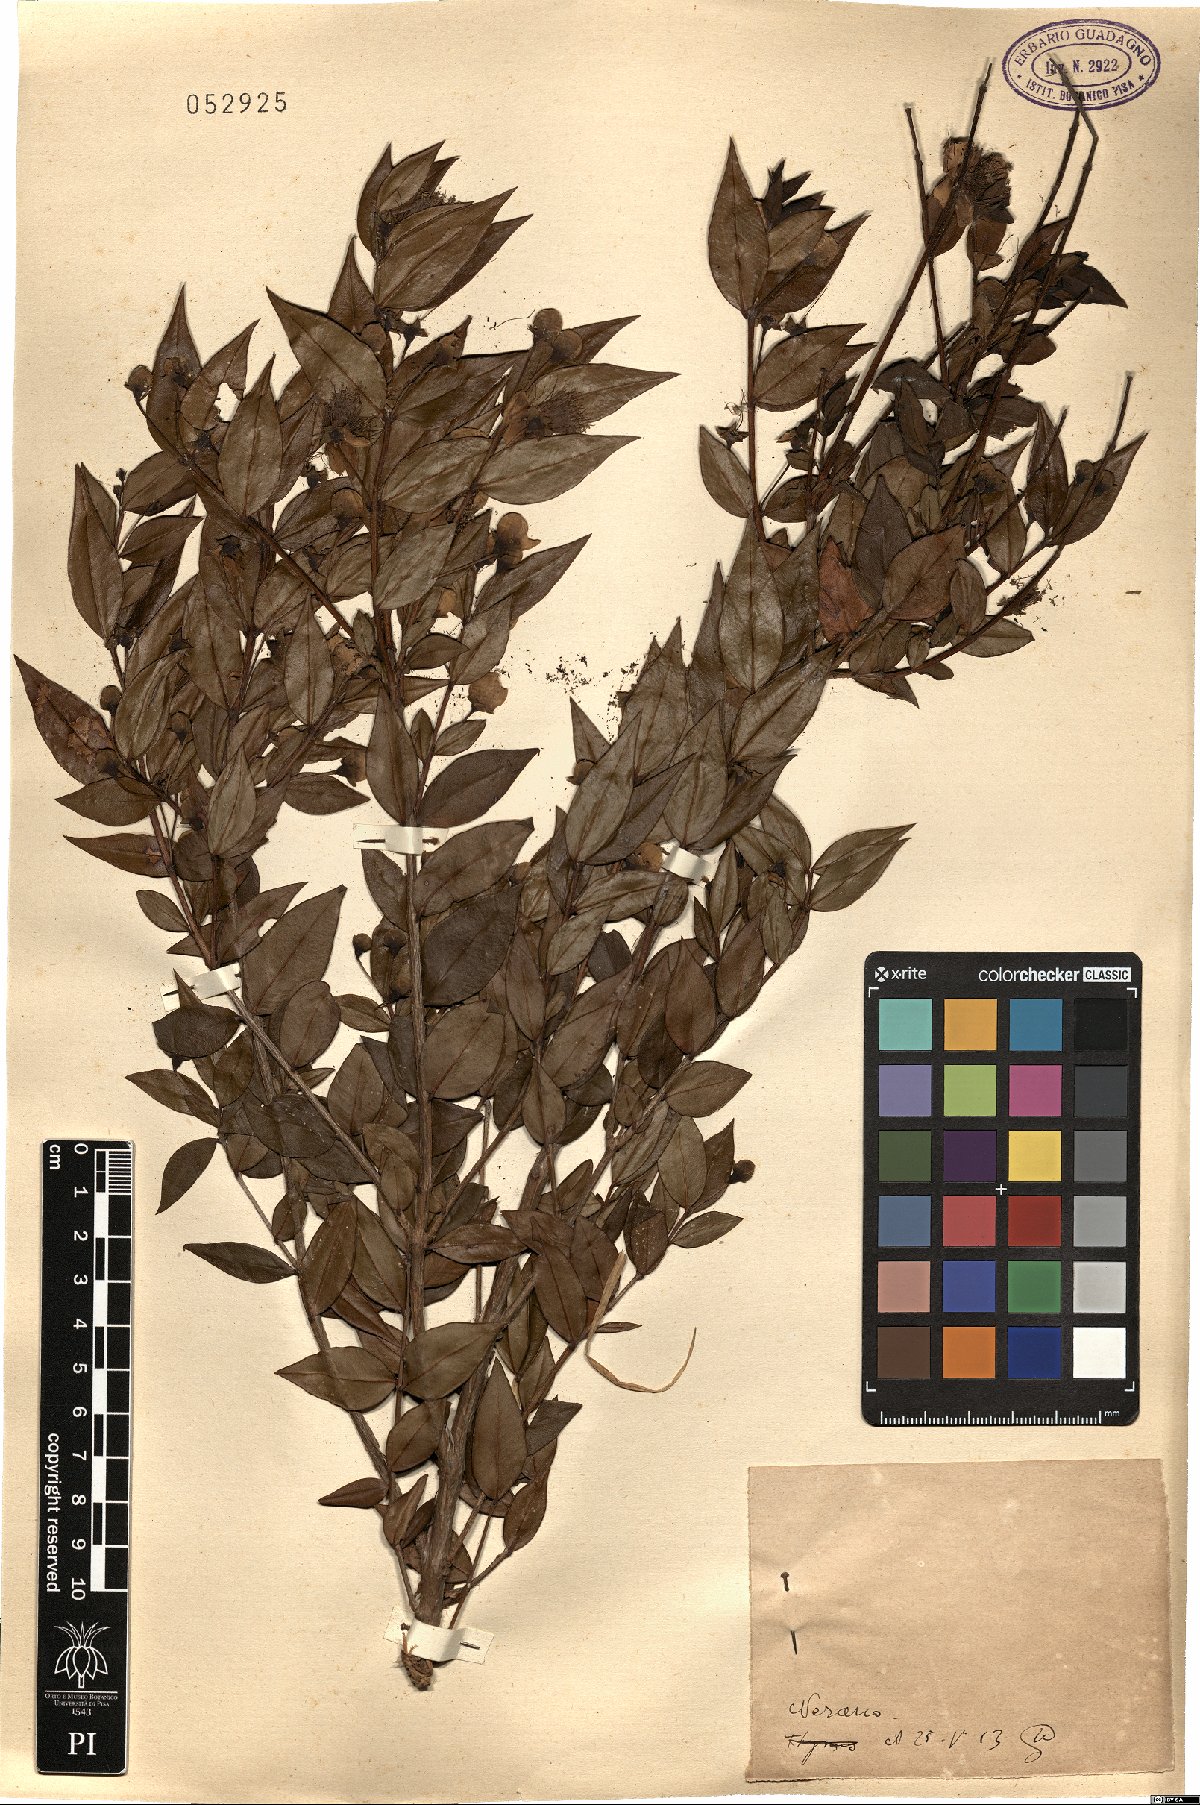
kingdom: Plantae
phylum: Tracheophyta
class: Magnoliopsida
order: Myrtales
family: Myrtaceae
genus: Myrtus
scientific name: Myrtus
